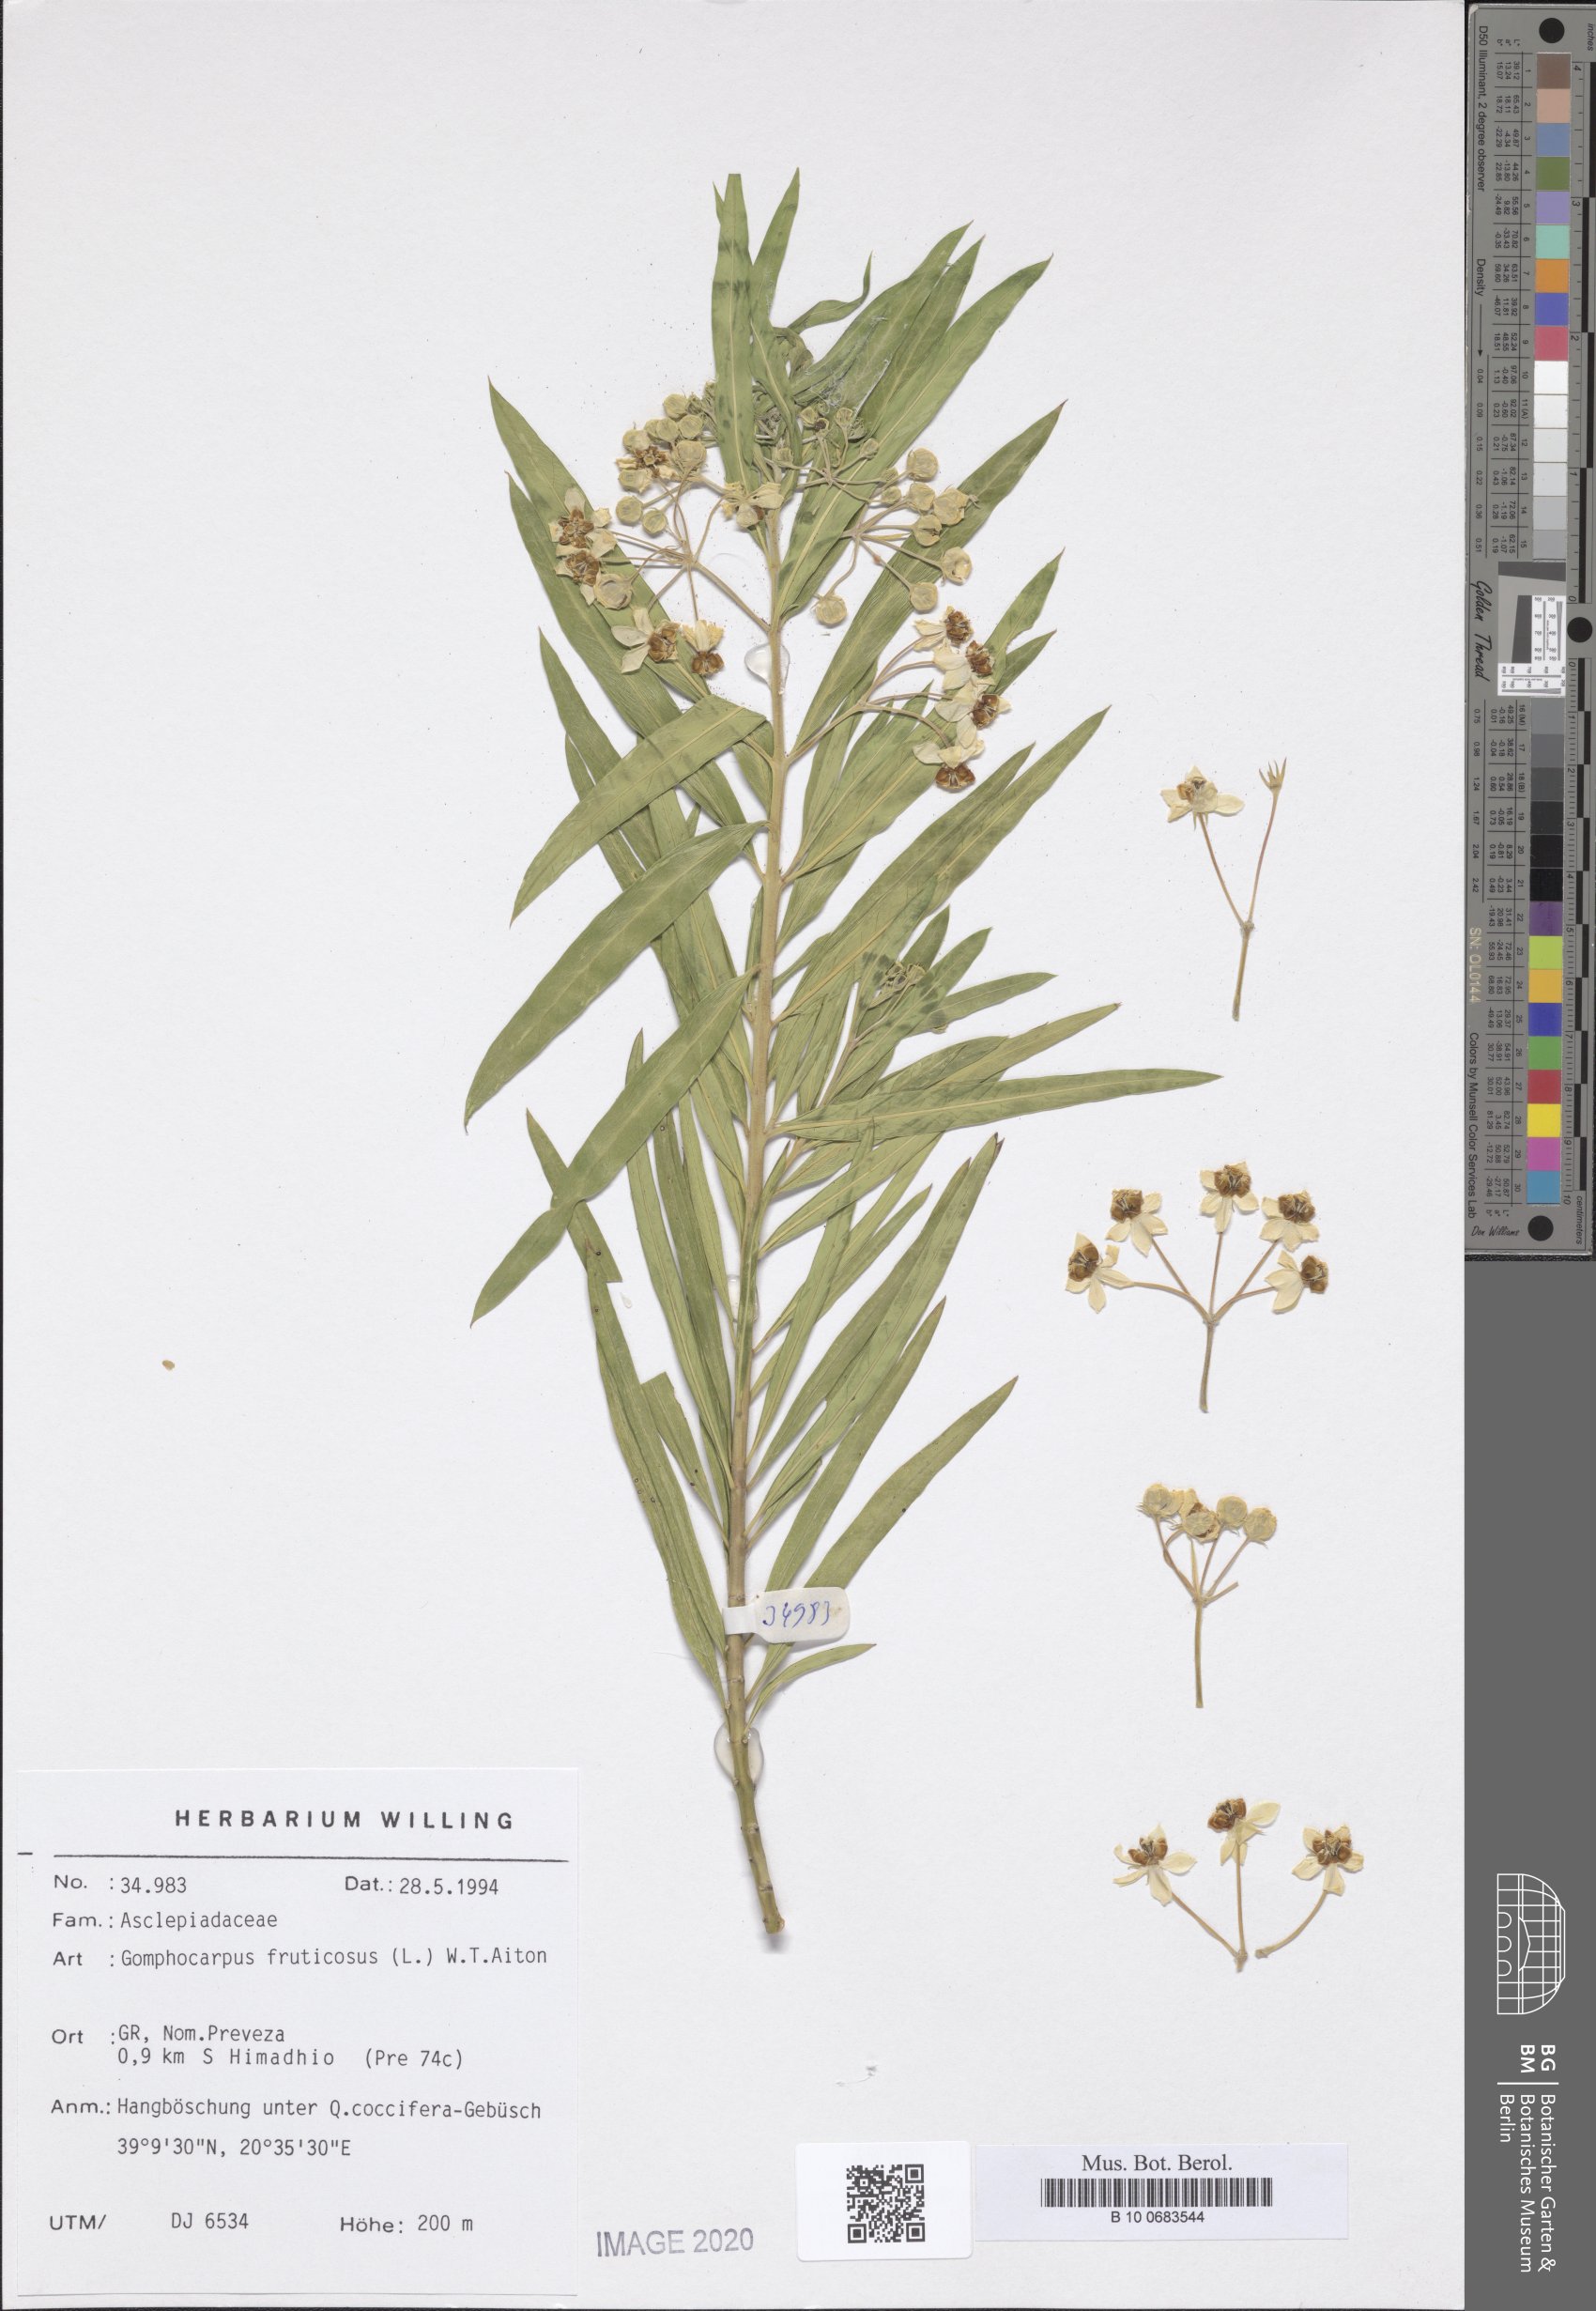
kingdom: Plantae
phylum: Tracheophyta
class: Magnoliopsida
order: Gentianales
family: Apocynaceae
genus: Gomphocarpus
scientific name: Gomphocarpus fruticosus
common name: Milkweed
